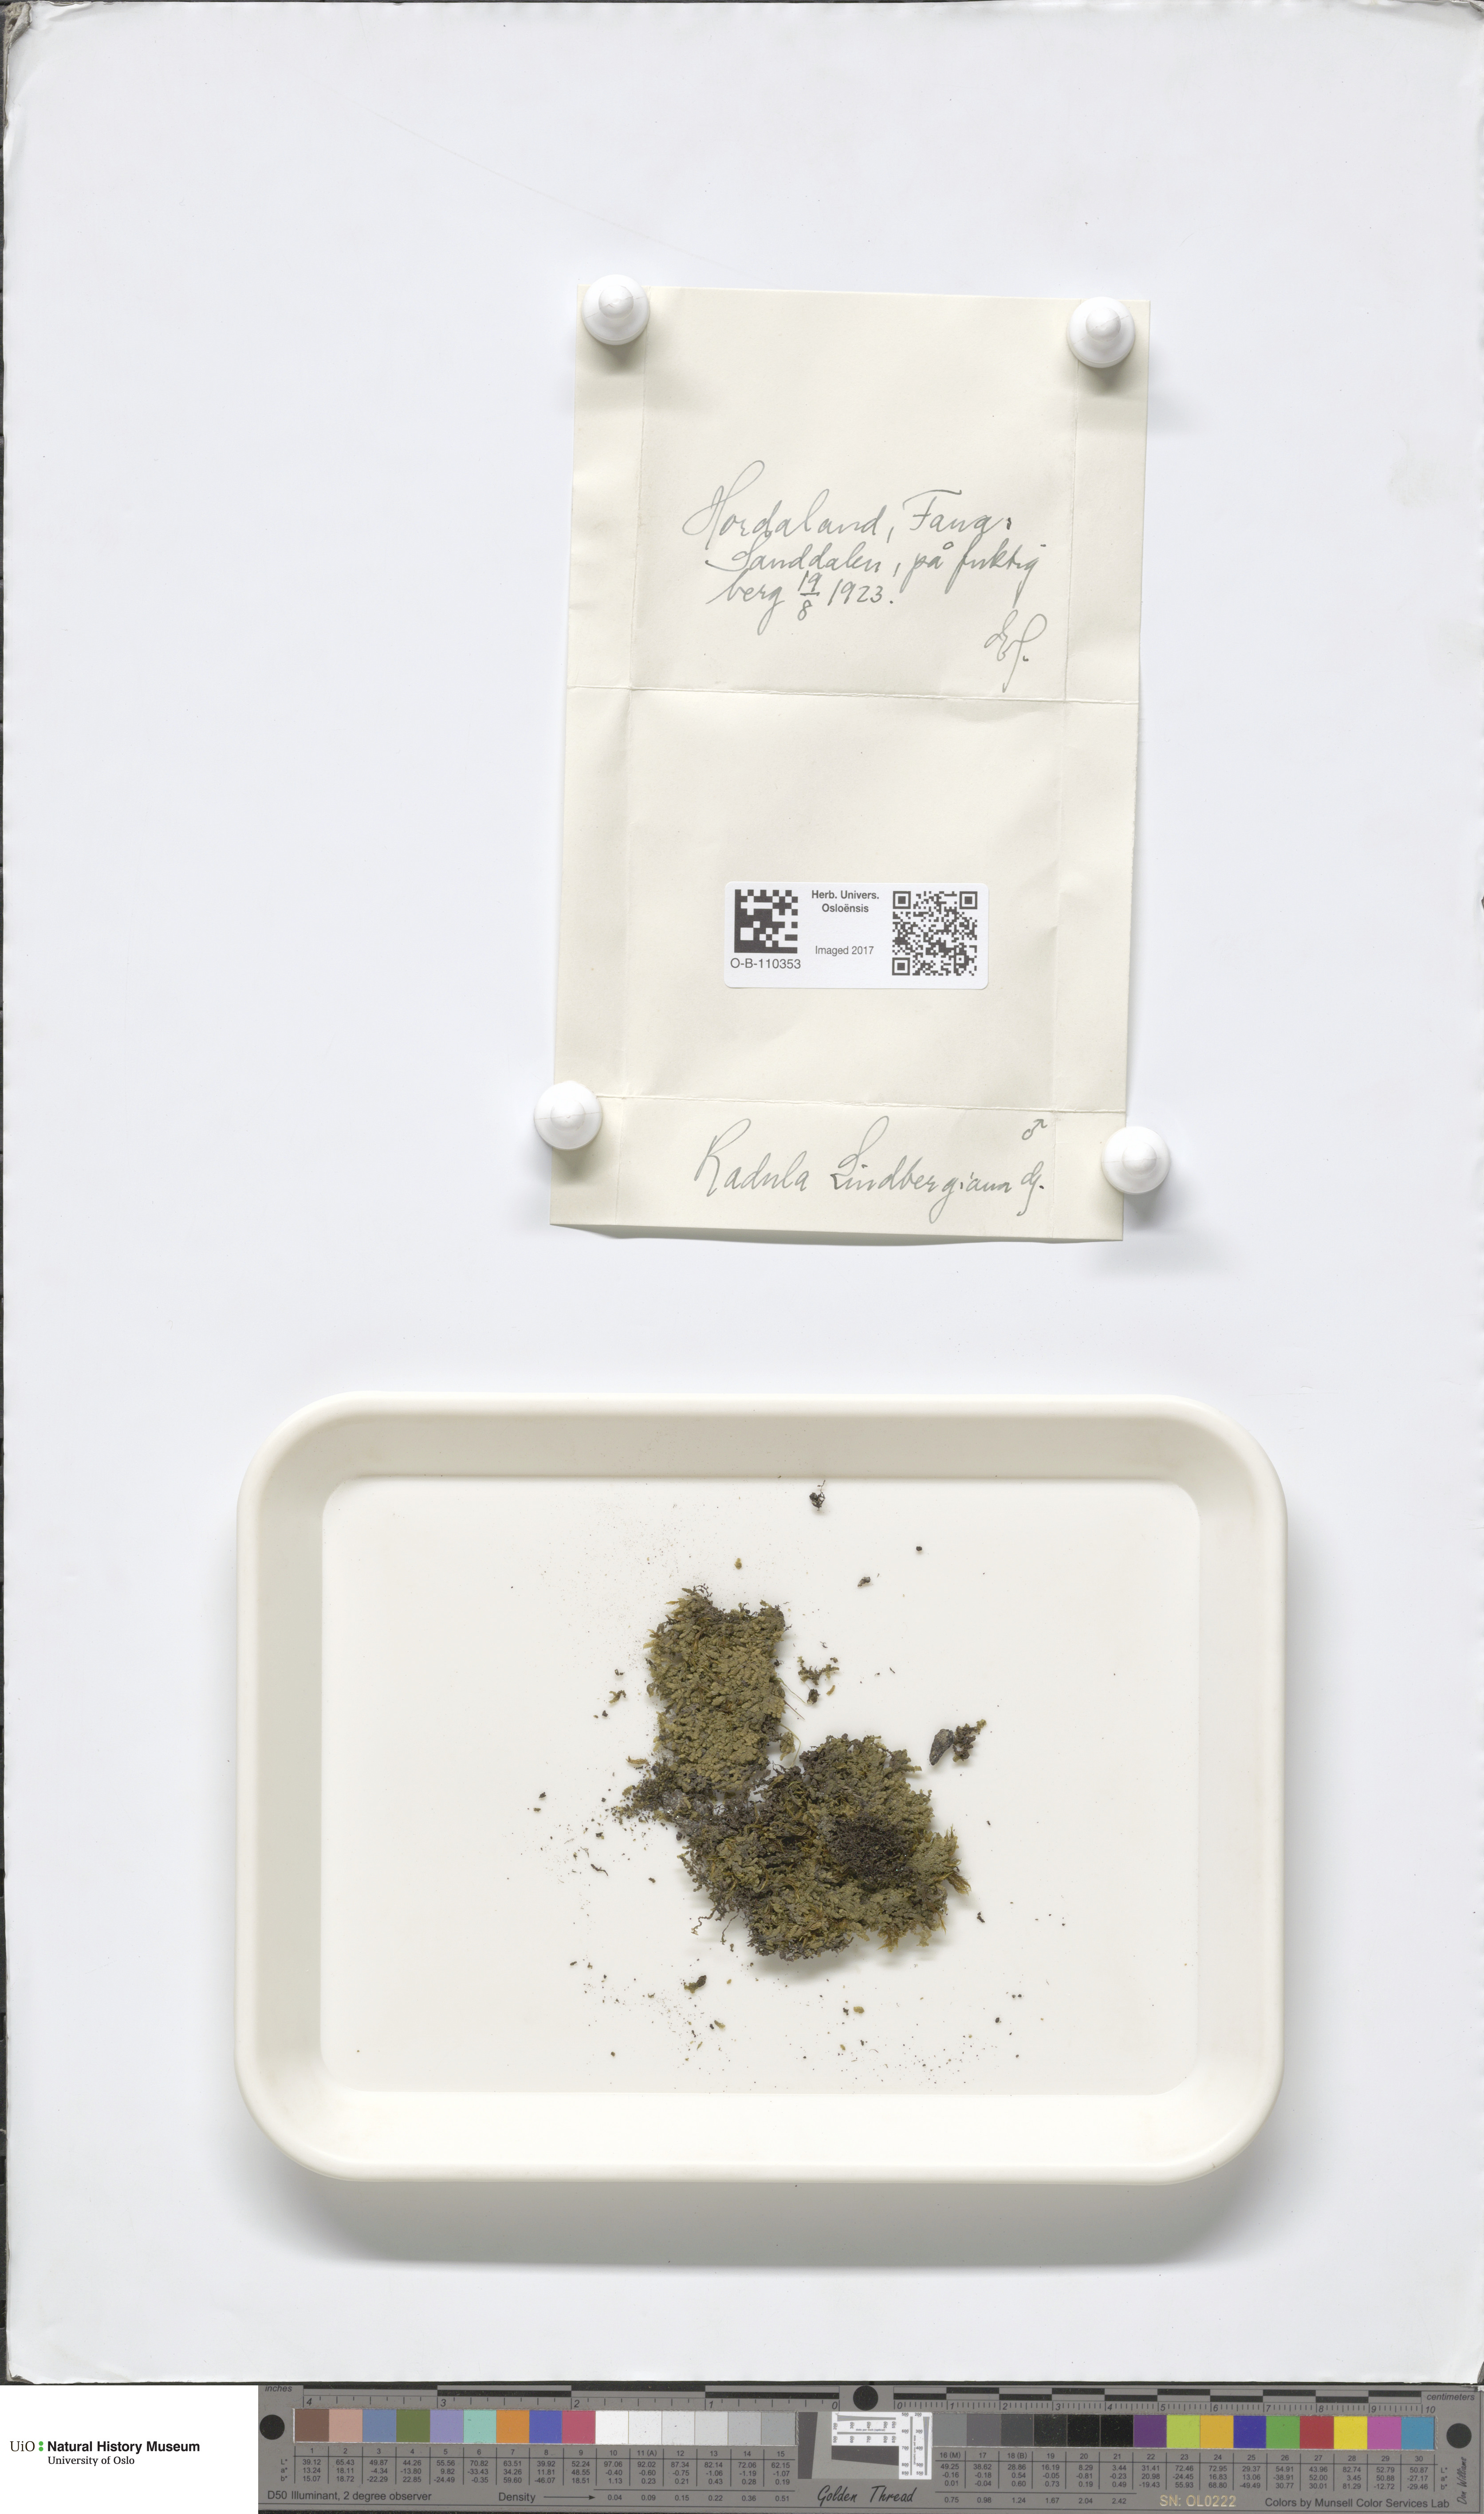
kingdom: Plantae
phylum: Marchantiophyta
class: Jungermanniopsida
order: Porellales
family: Radulaceae
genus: Radula
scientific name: Radula complanata
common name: Flat-leaved scalewort
